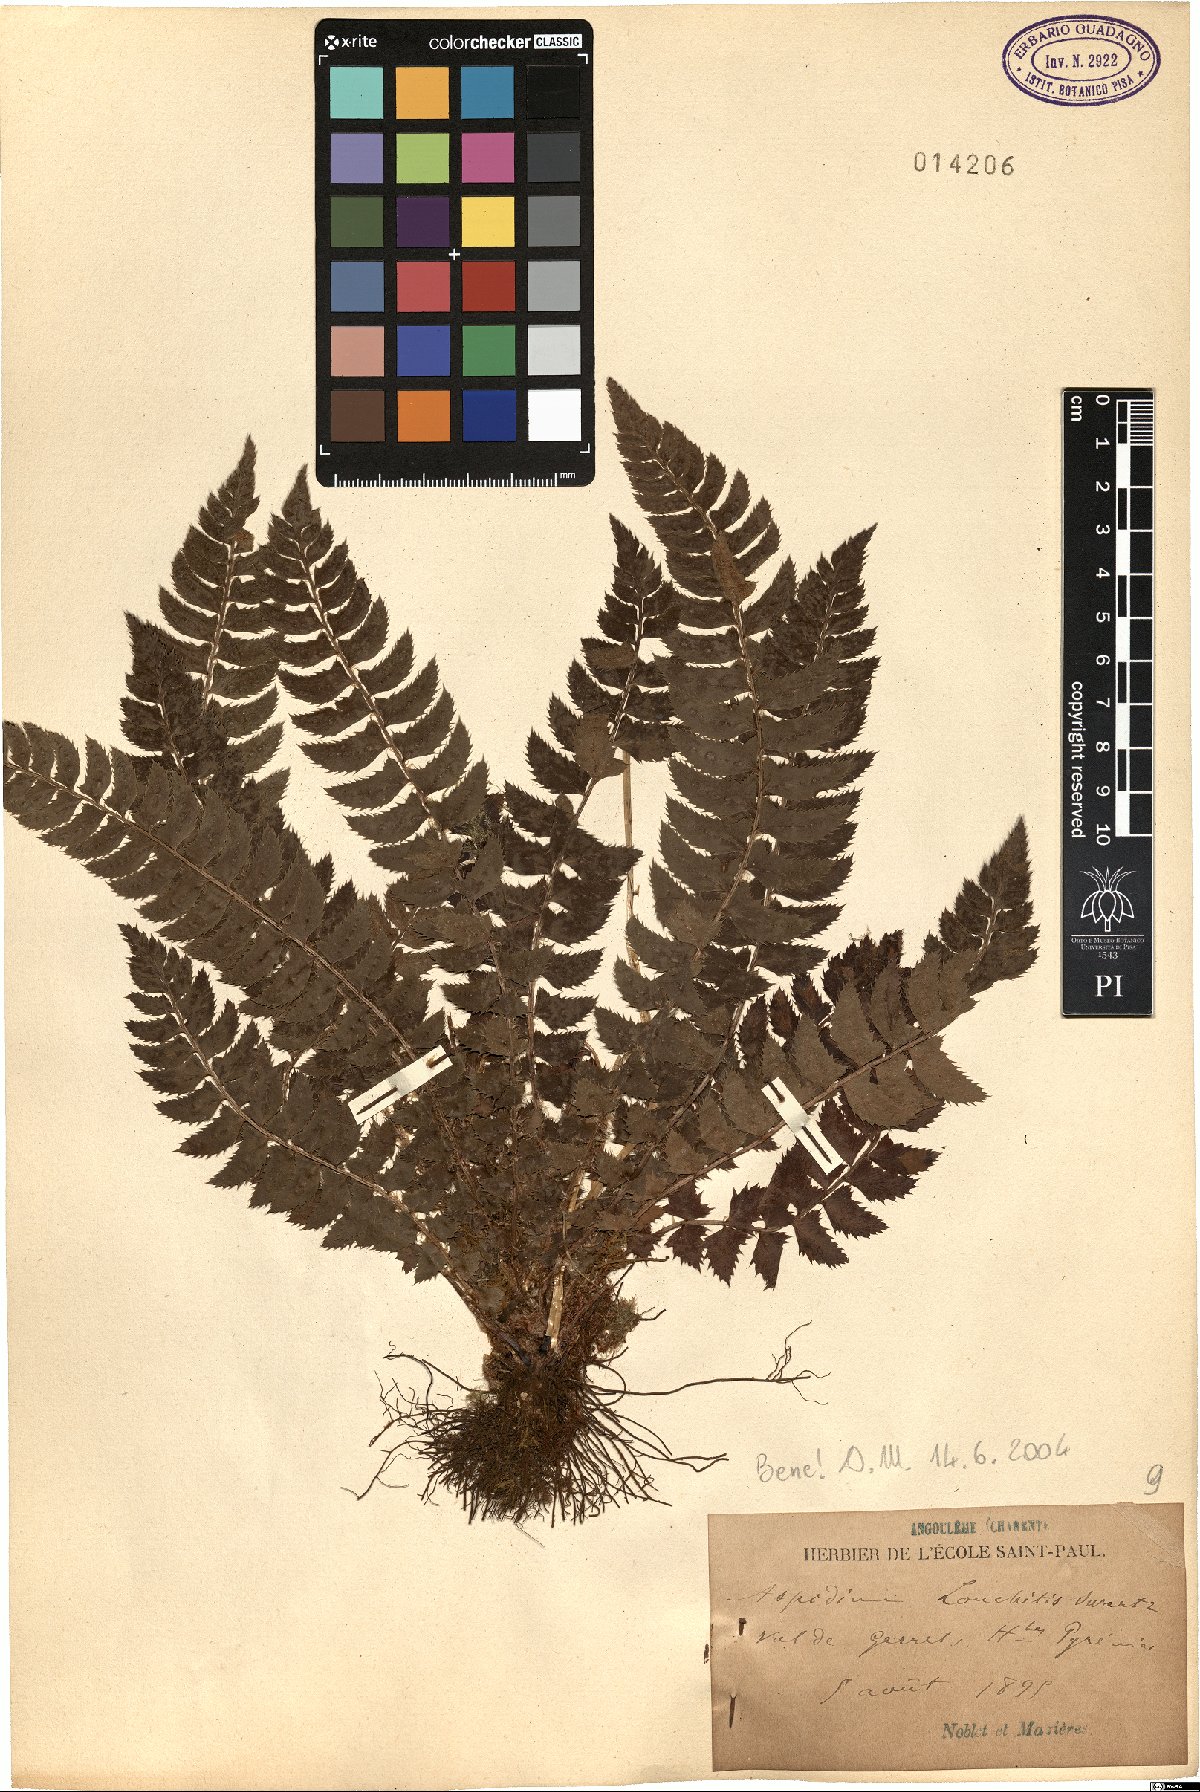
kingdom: Plantae
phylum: Tracheophyta
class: Polypodiopsida
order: Polypodiales
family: Dryopteridaceae
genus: Polystichum
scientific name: Polystichum lonchitis
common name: Holly fern
